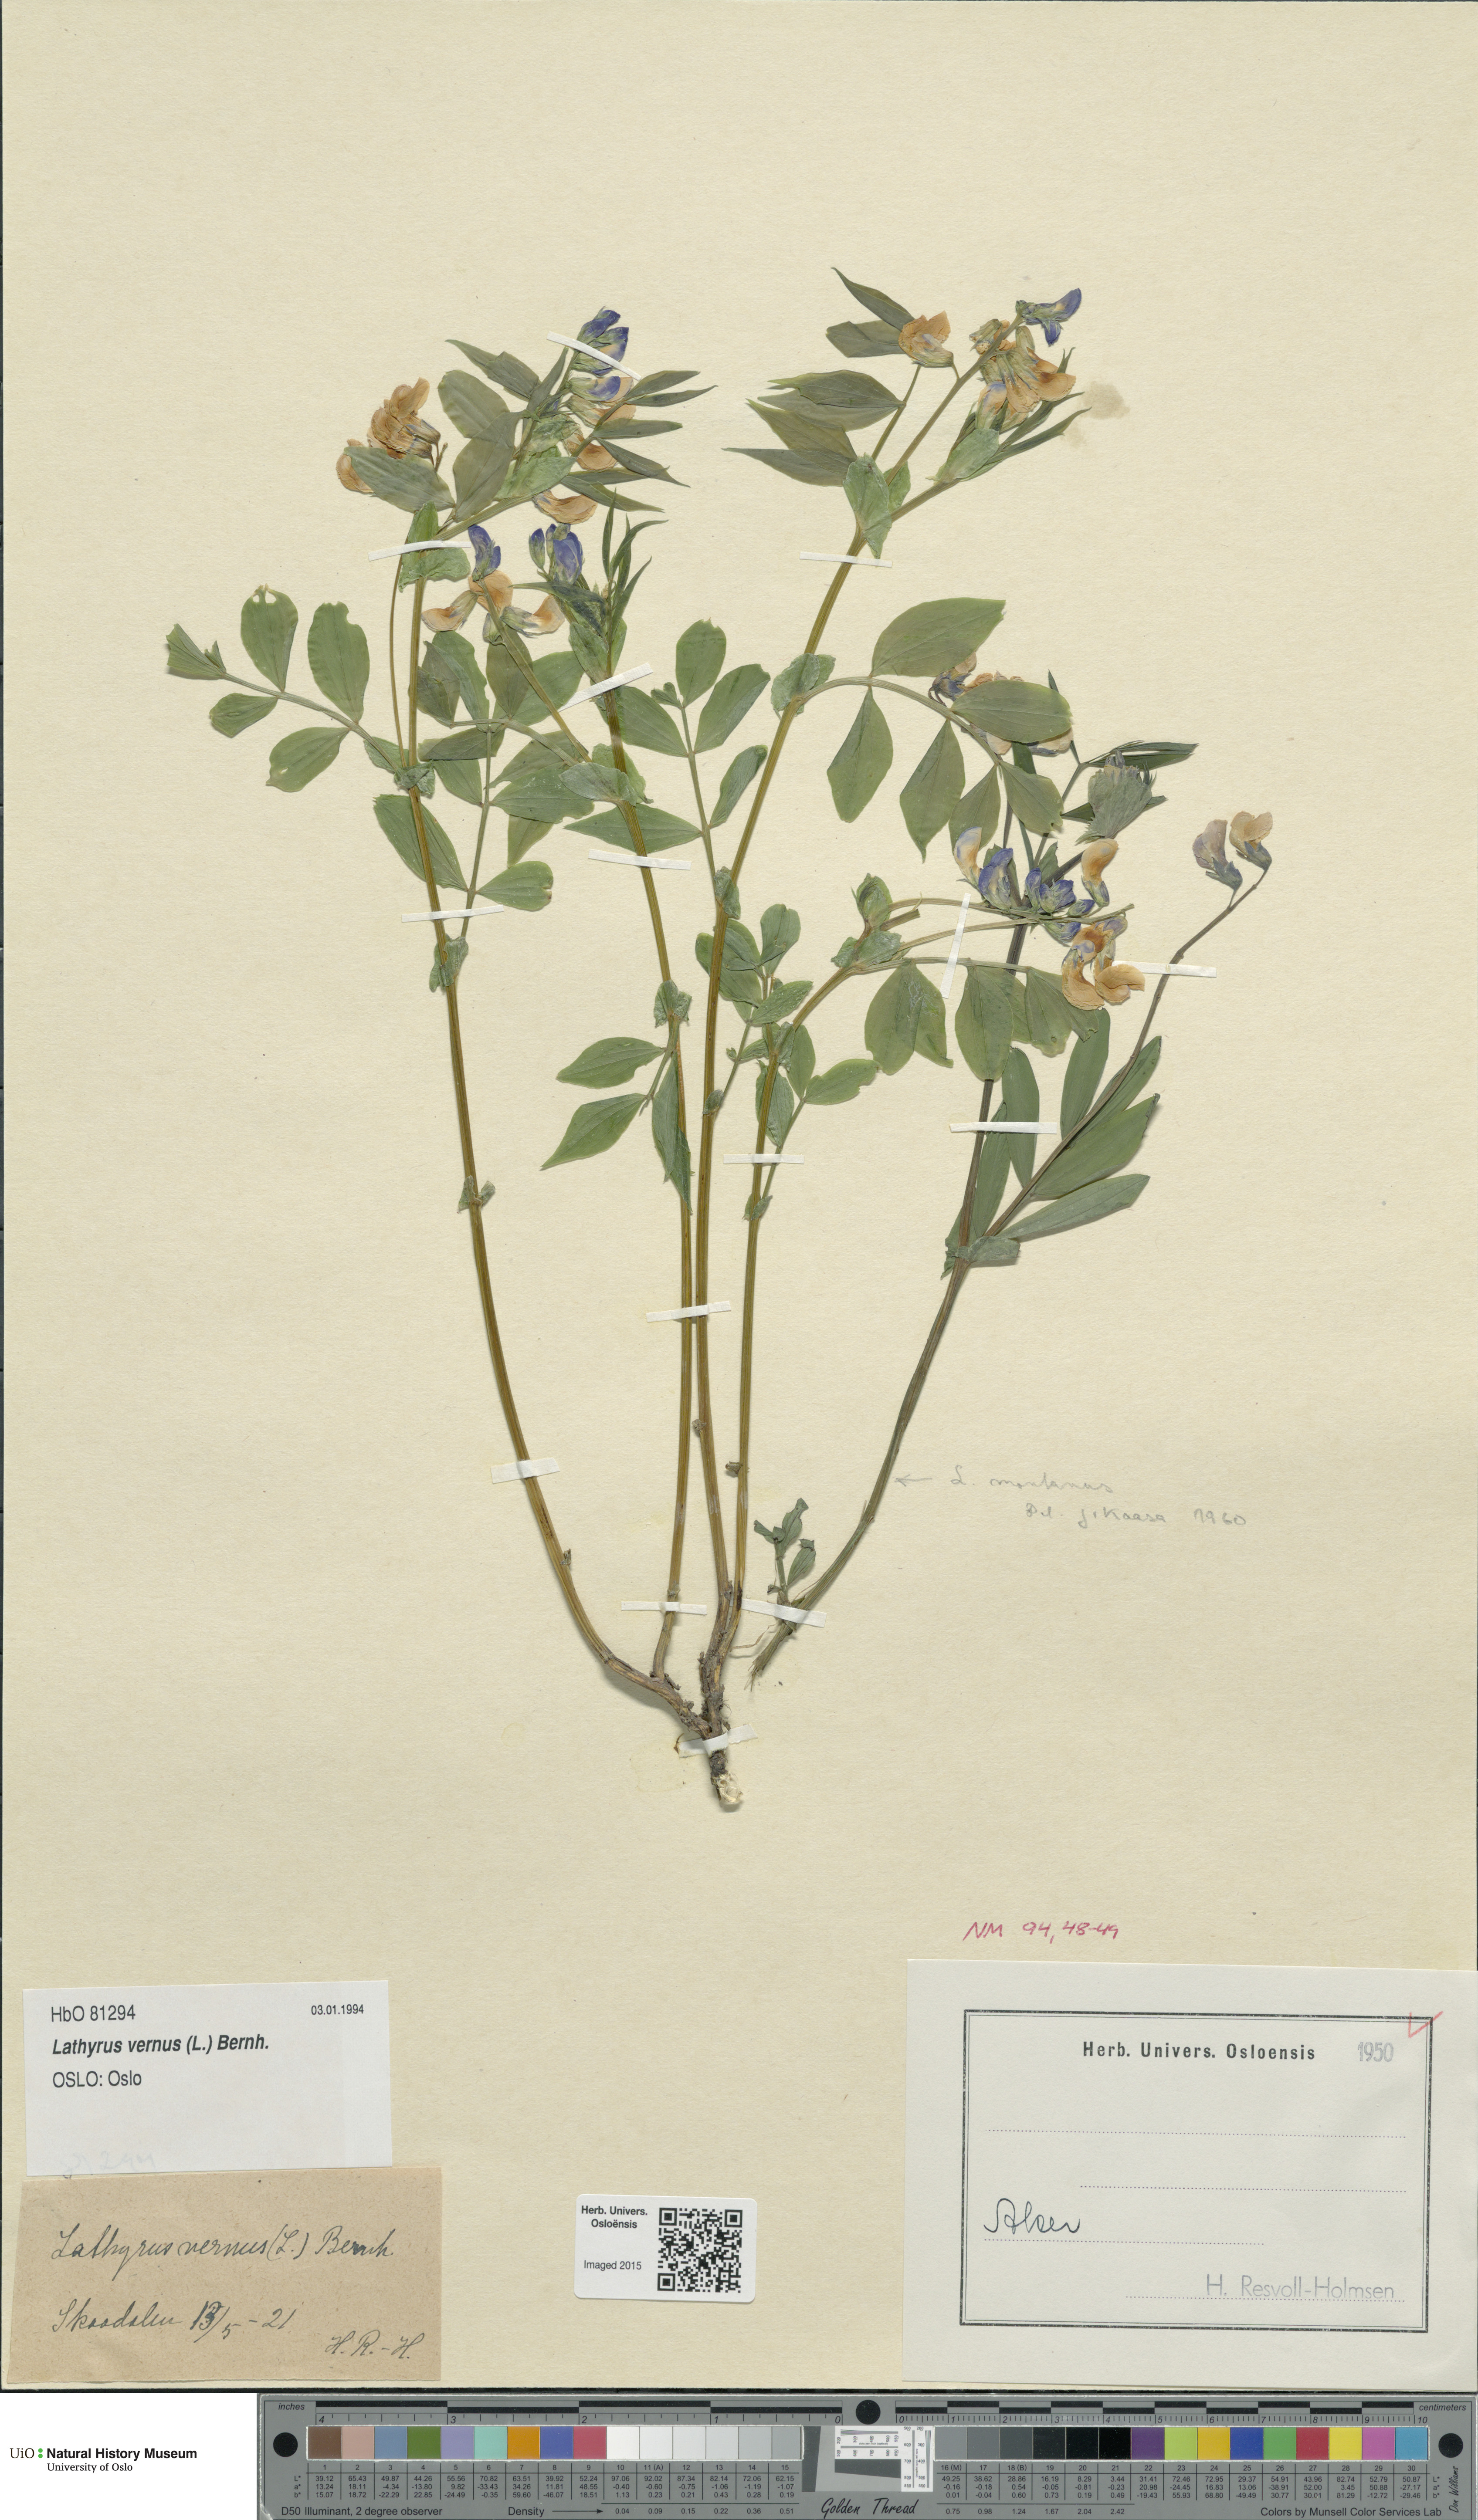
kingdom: Plantae
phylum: Tracheophyta
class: Magnoliopsida
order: Fabales
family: Fabaceae
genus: Lathyrus
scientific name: Lathyrus vernus
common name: Spring pea
